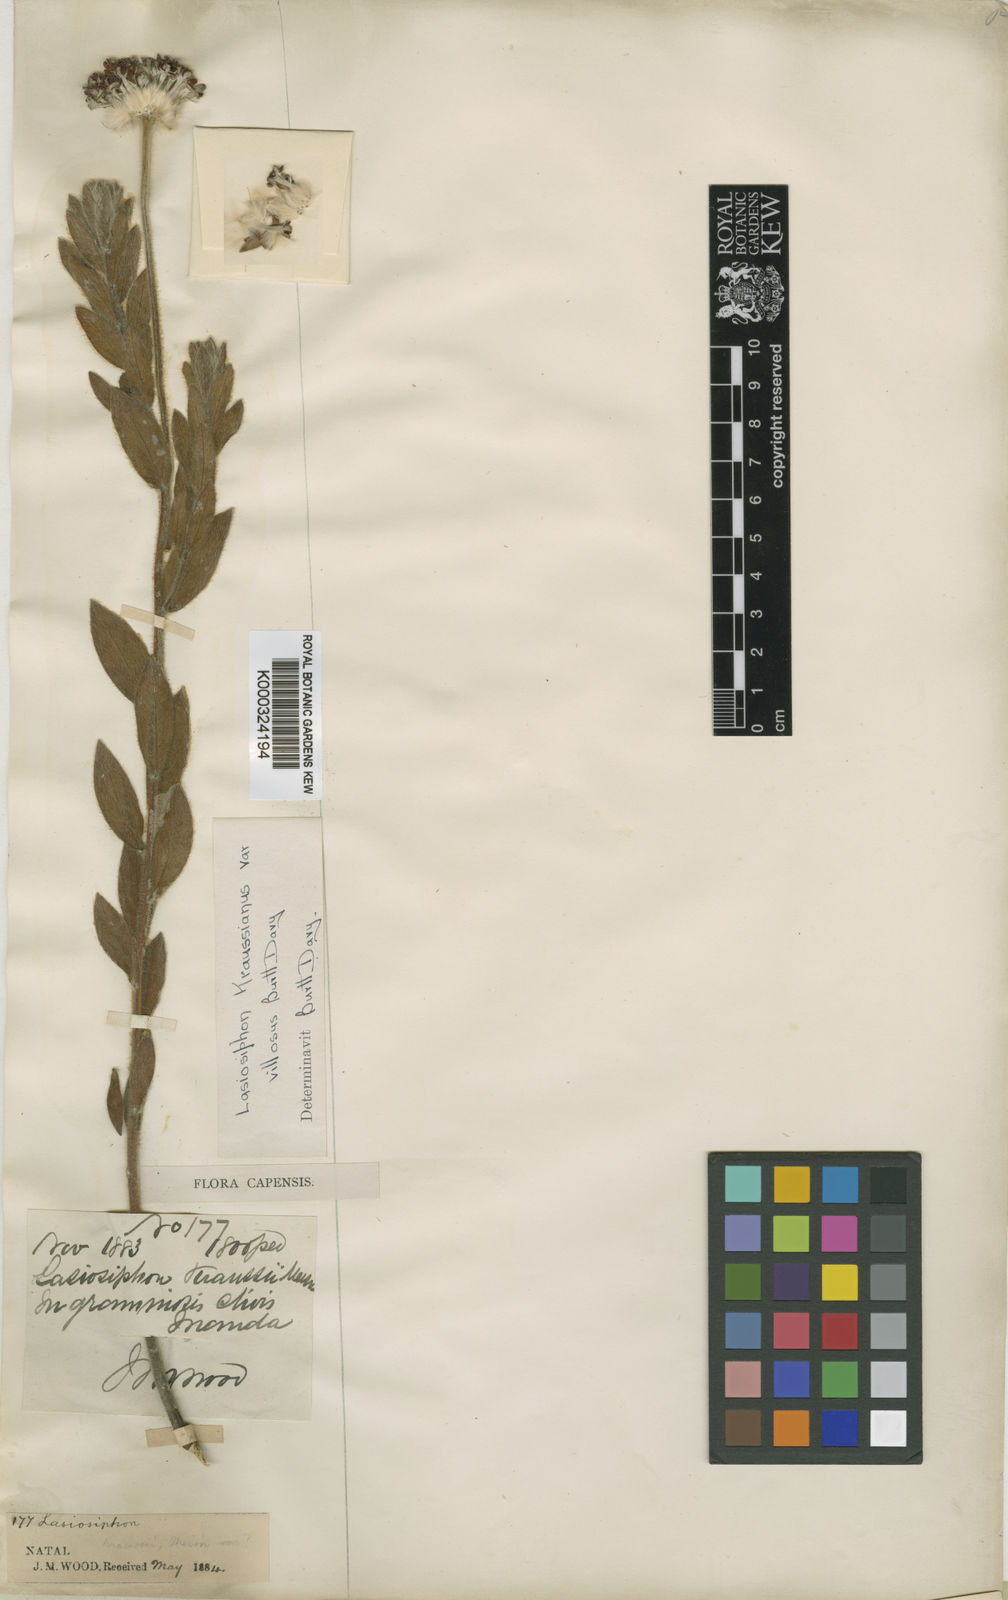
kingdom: Plantae
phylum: Tracheophyta
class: Magnoliopsida
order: Malvales
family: Thymelaeaceae
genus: Lasiosiphon
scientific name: Lasiosiphon
